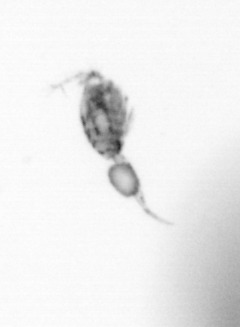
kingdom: Animalia
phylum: Arthropoda
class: Copepoda
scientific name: Copepoda
